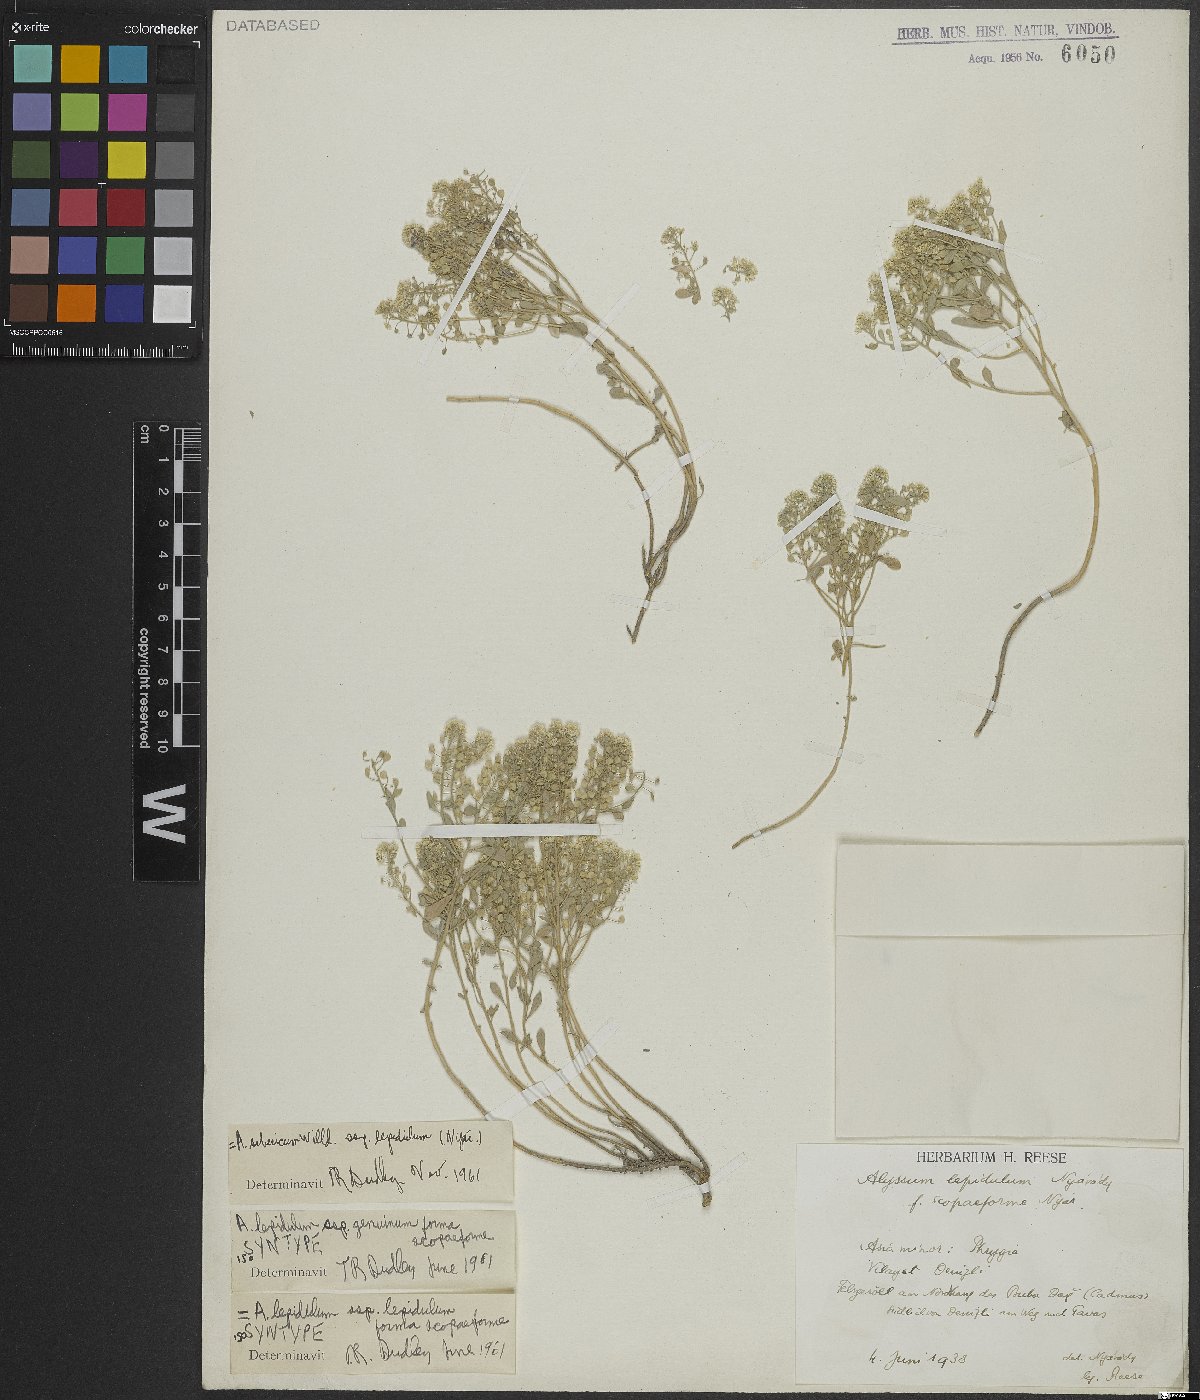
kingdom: Plantae
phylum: Tracheophyta
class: Magnoliopsida
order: Brassicales
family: Brassicaceae
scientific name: Brassicaceae
